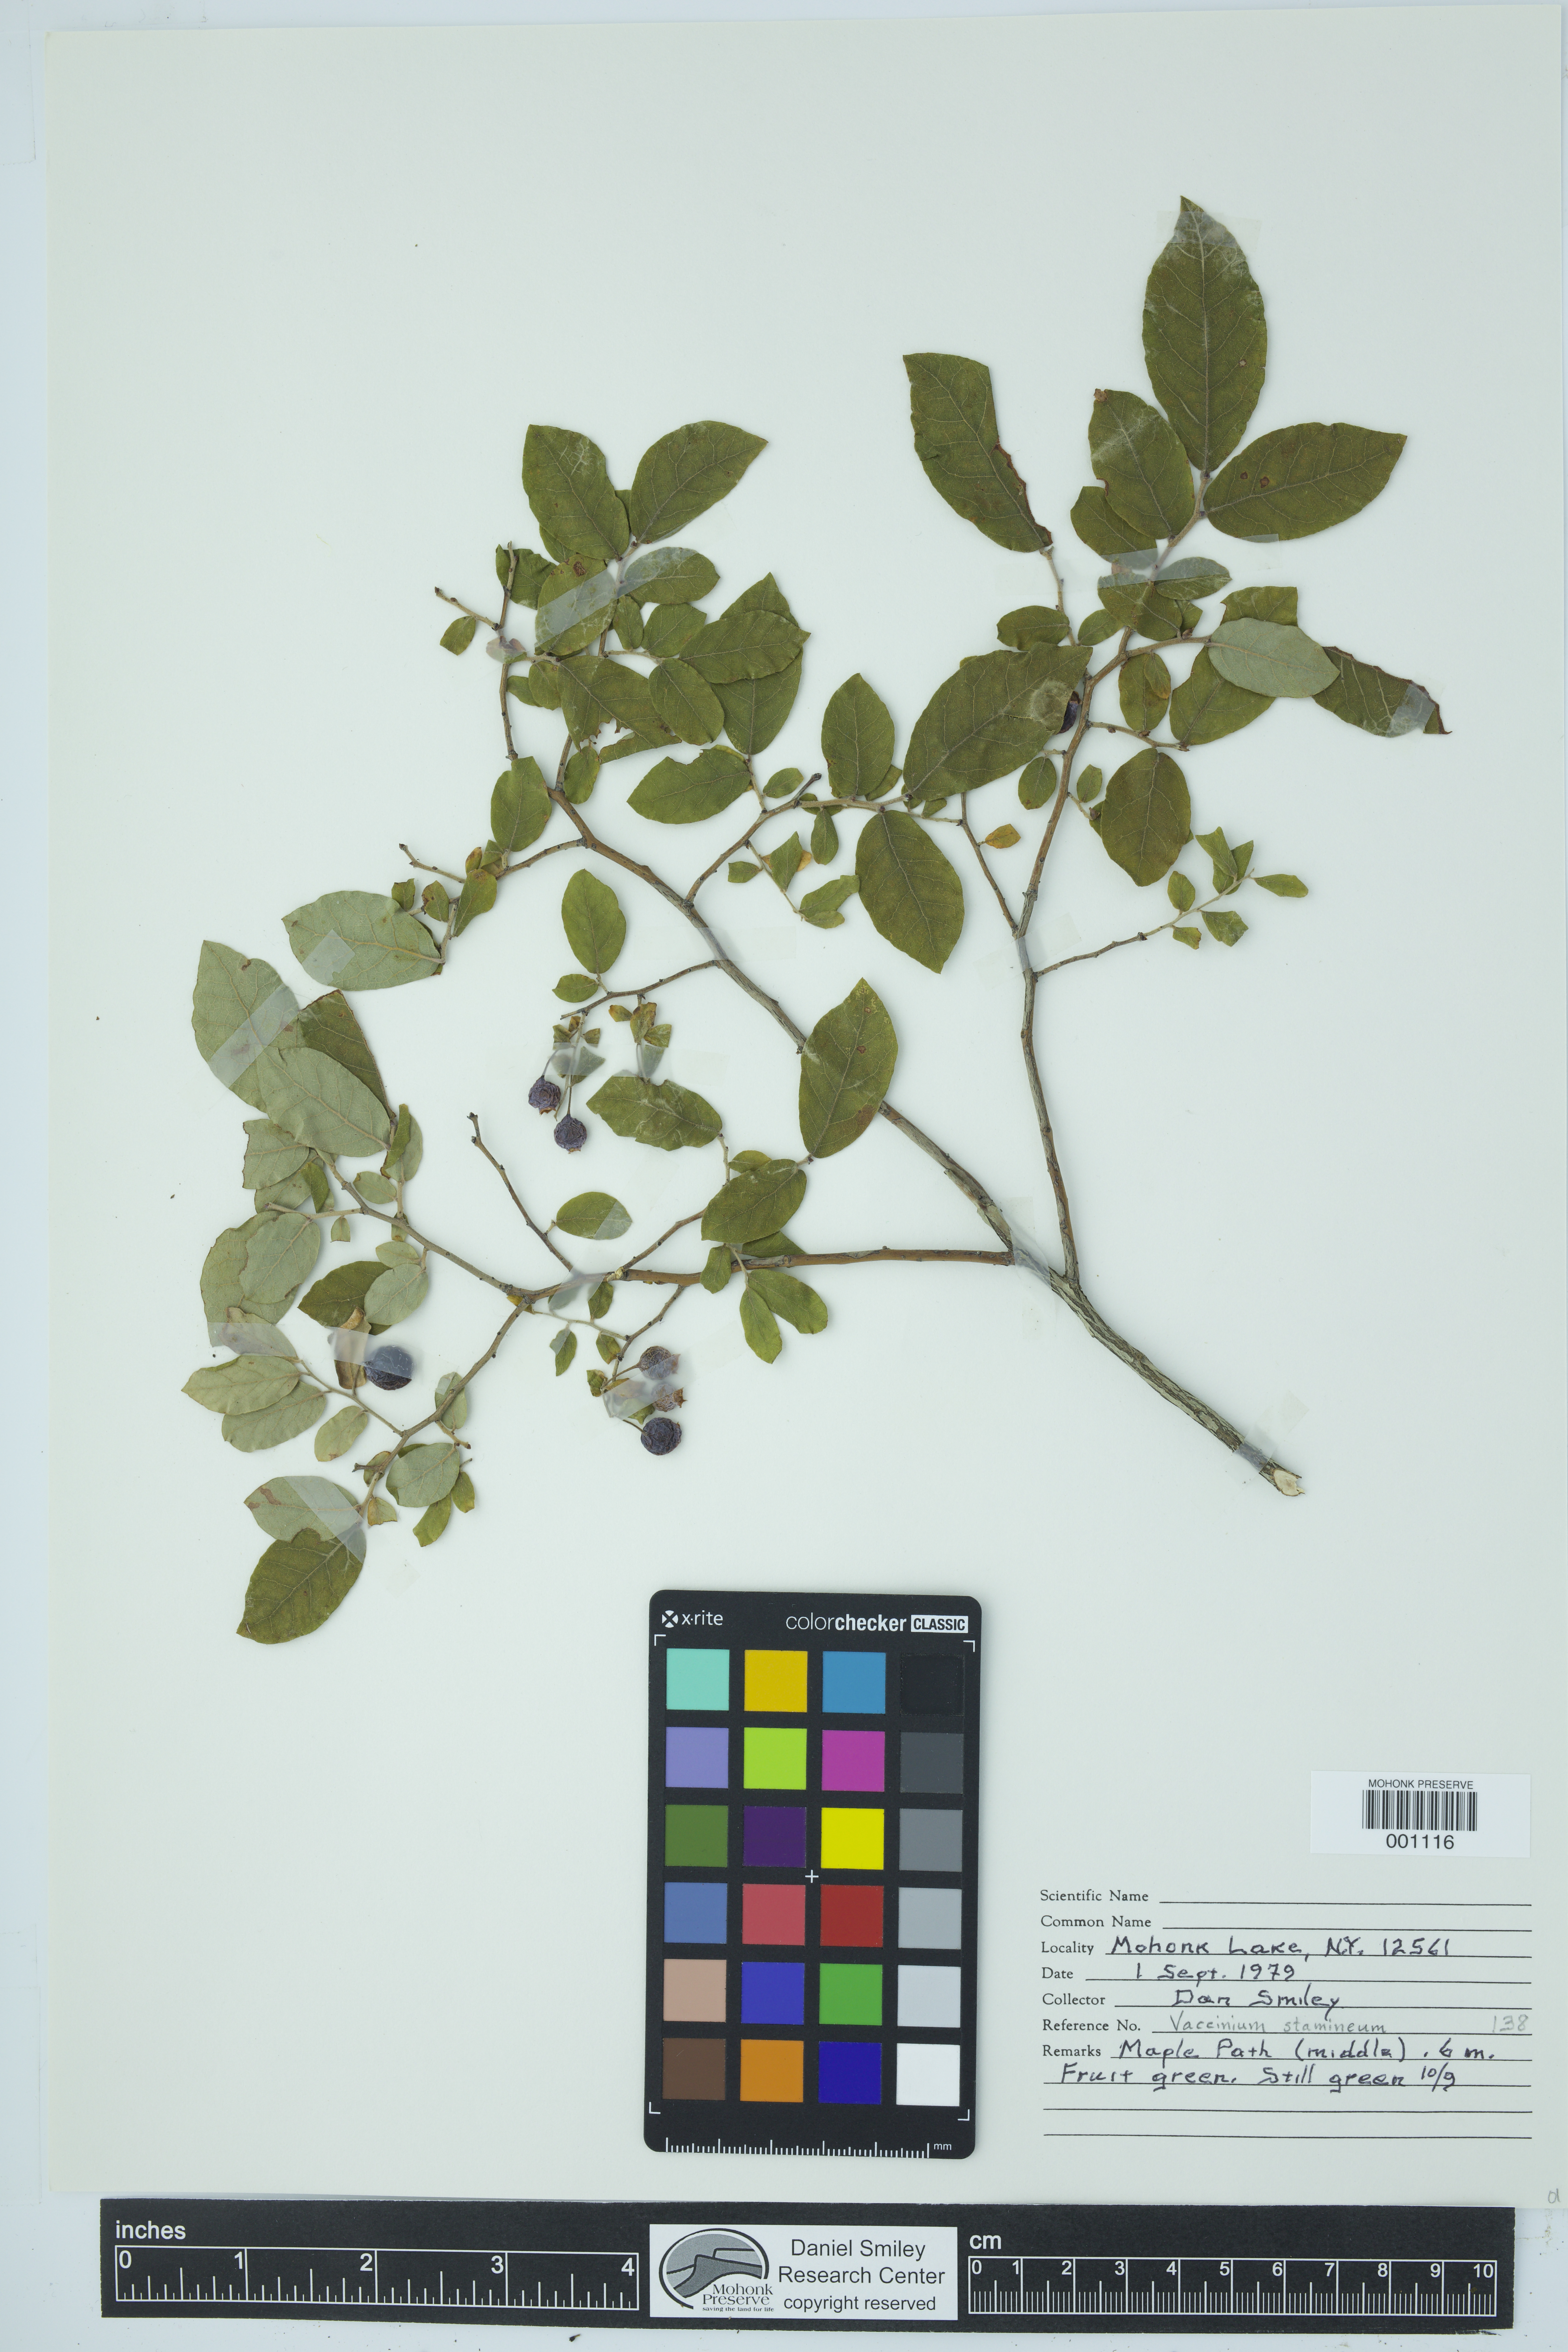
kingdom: Plantae
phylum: Tracheophyta
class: Magnoliopsida
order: Ericales
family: Ericaceae
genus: Vaccinium
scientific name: Vaccinium stamineum
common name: Deerberry
